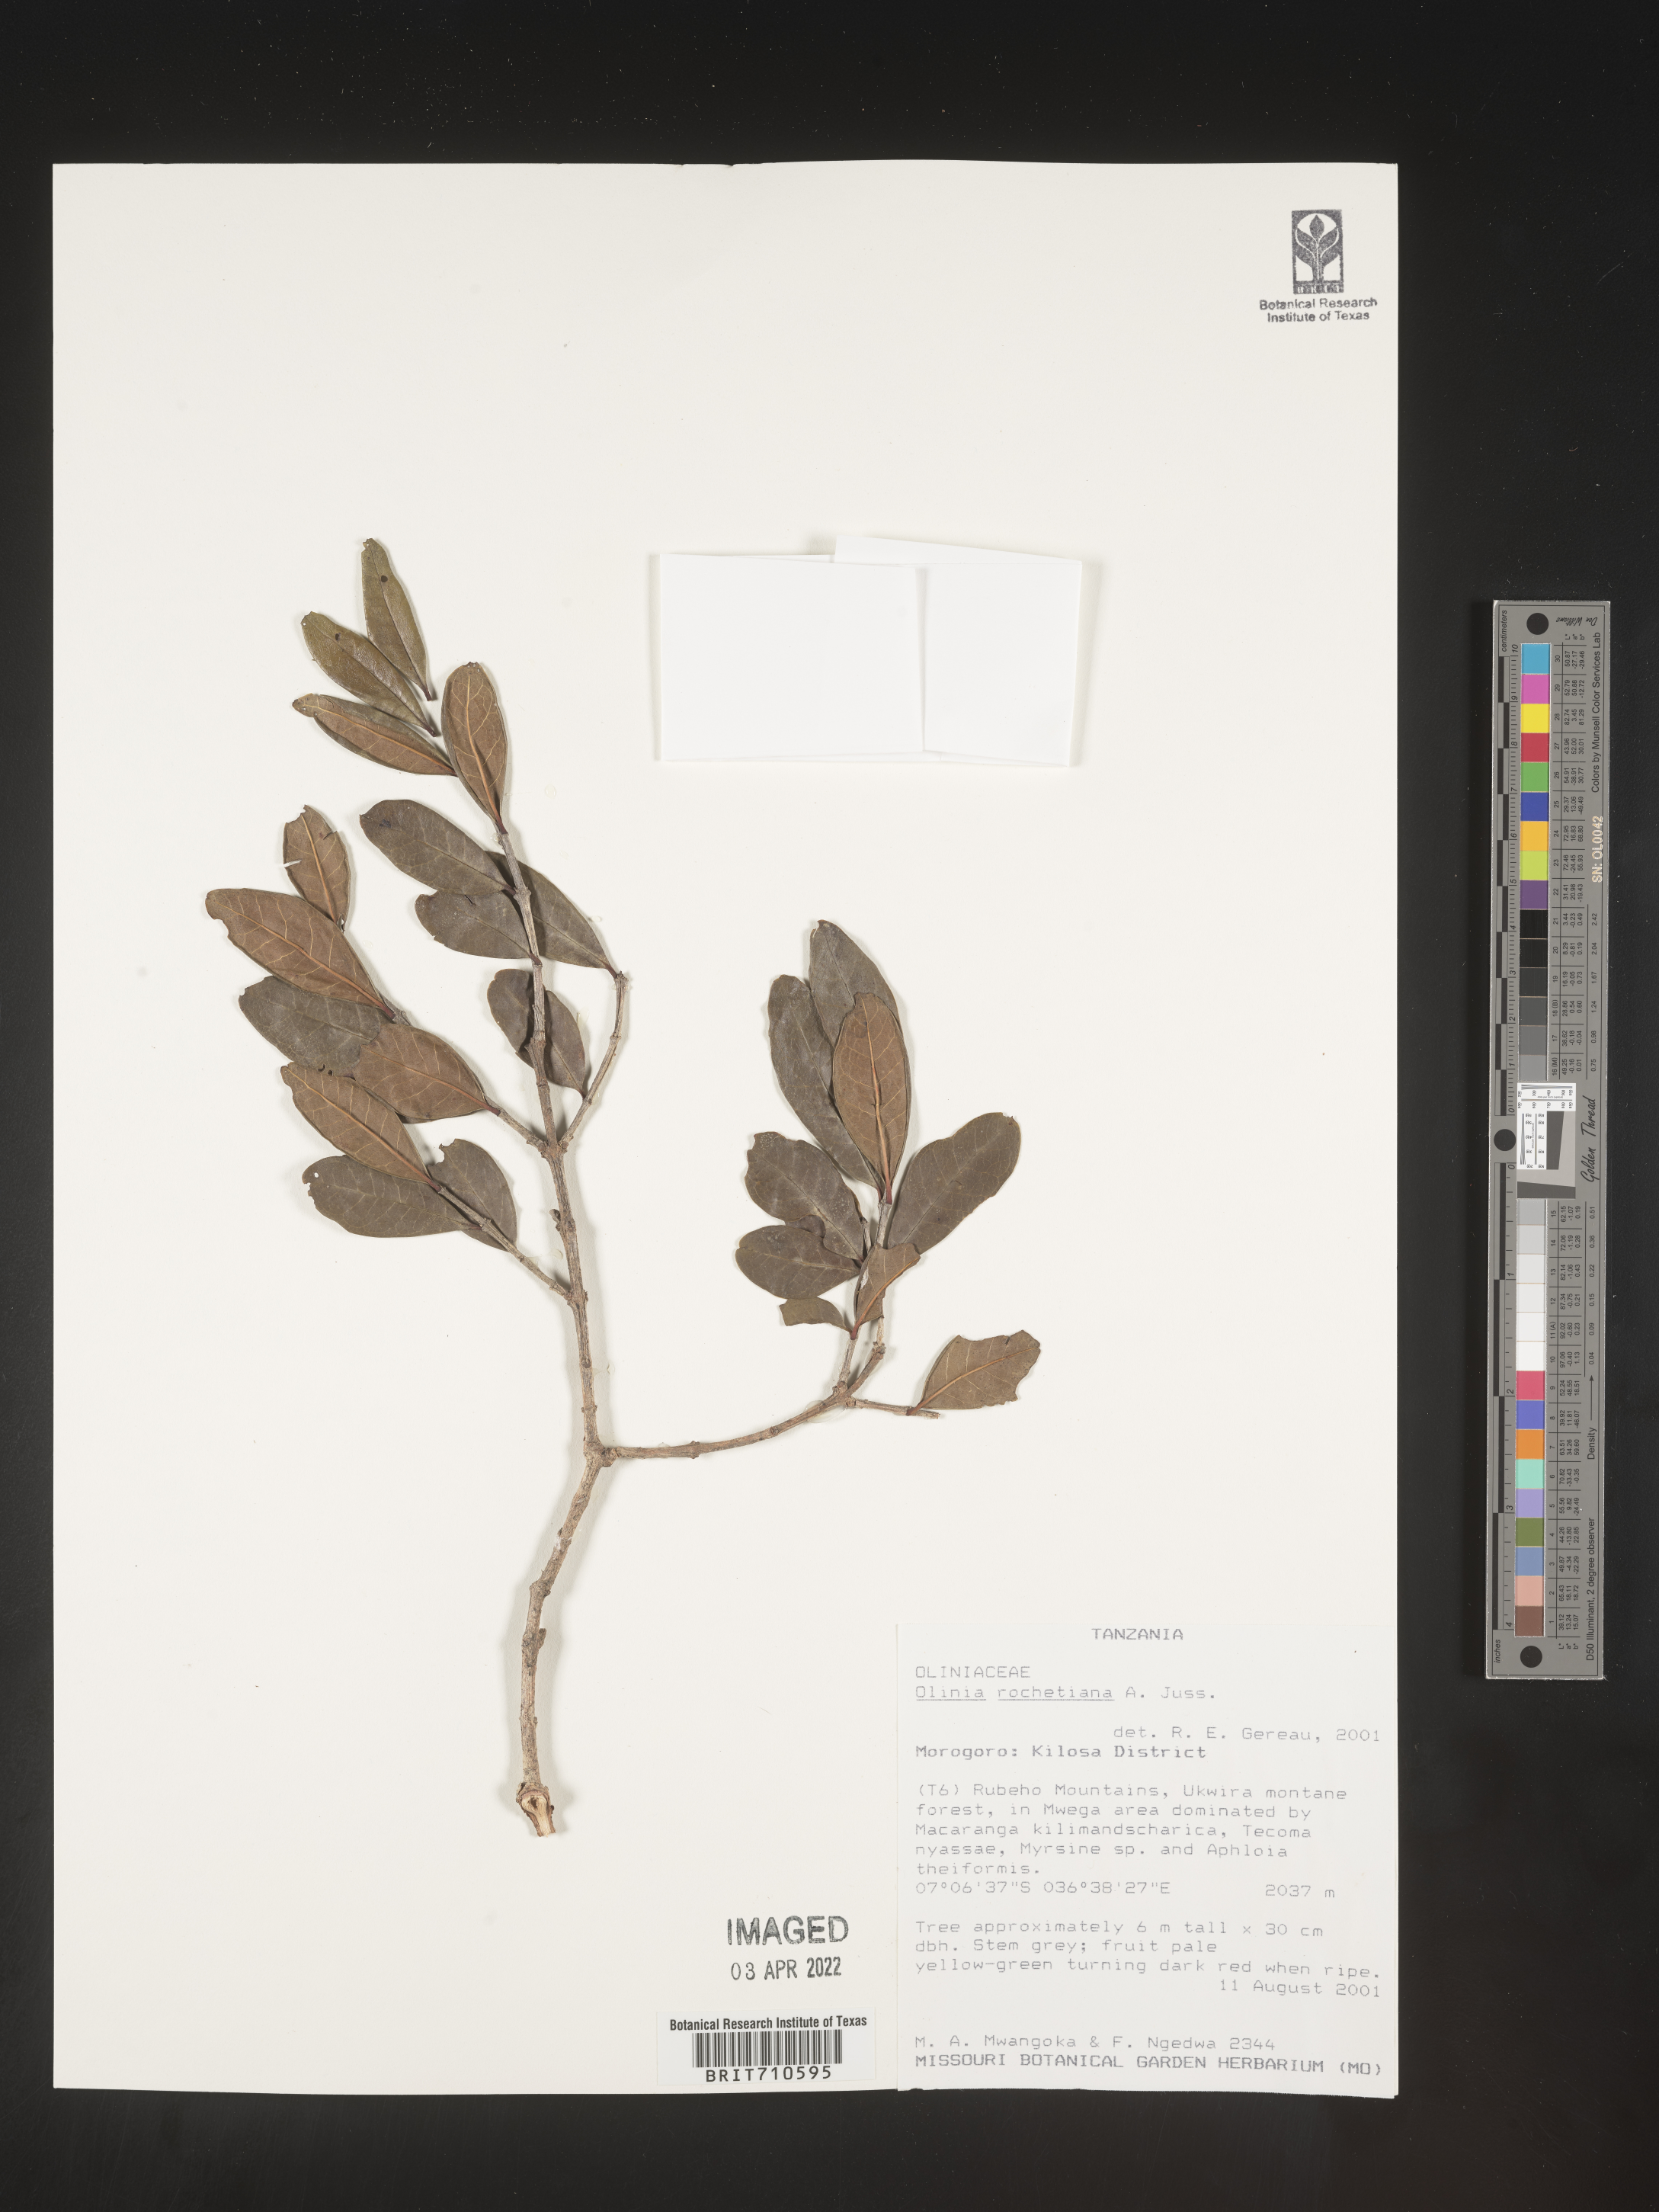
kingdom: Plantae
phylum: Tracheophyta
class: Magnoliopsida
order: Myrtales
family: Penaeaceae
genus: Olinia
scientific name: Olinia
